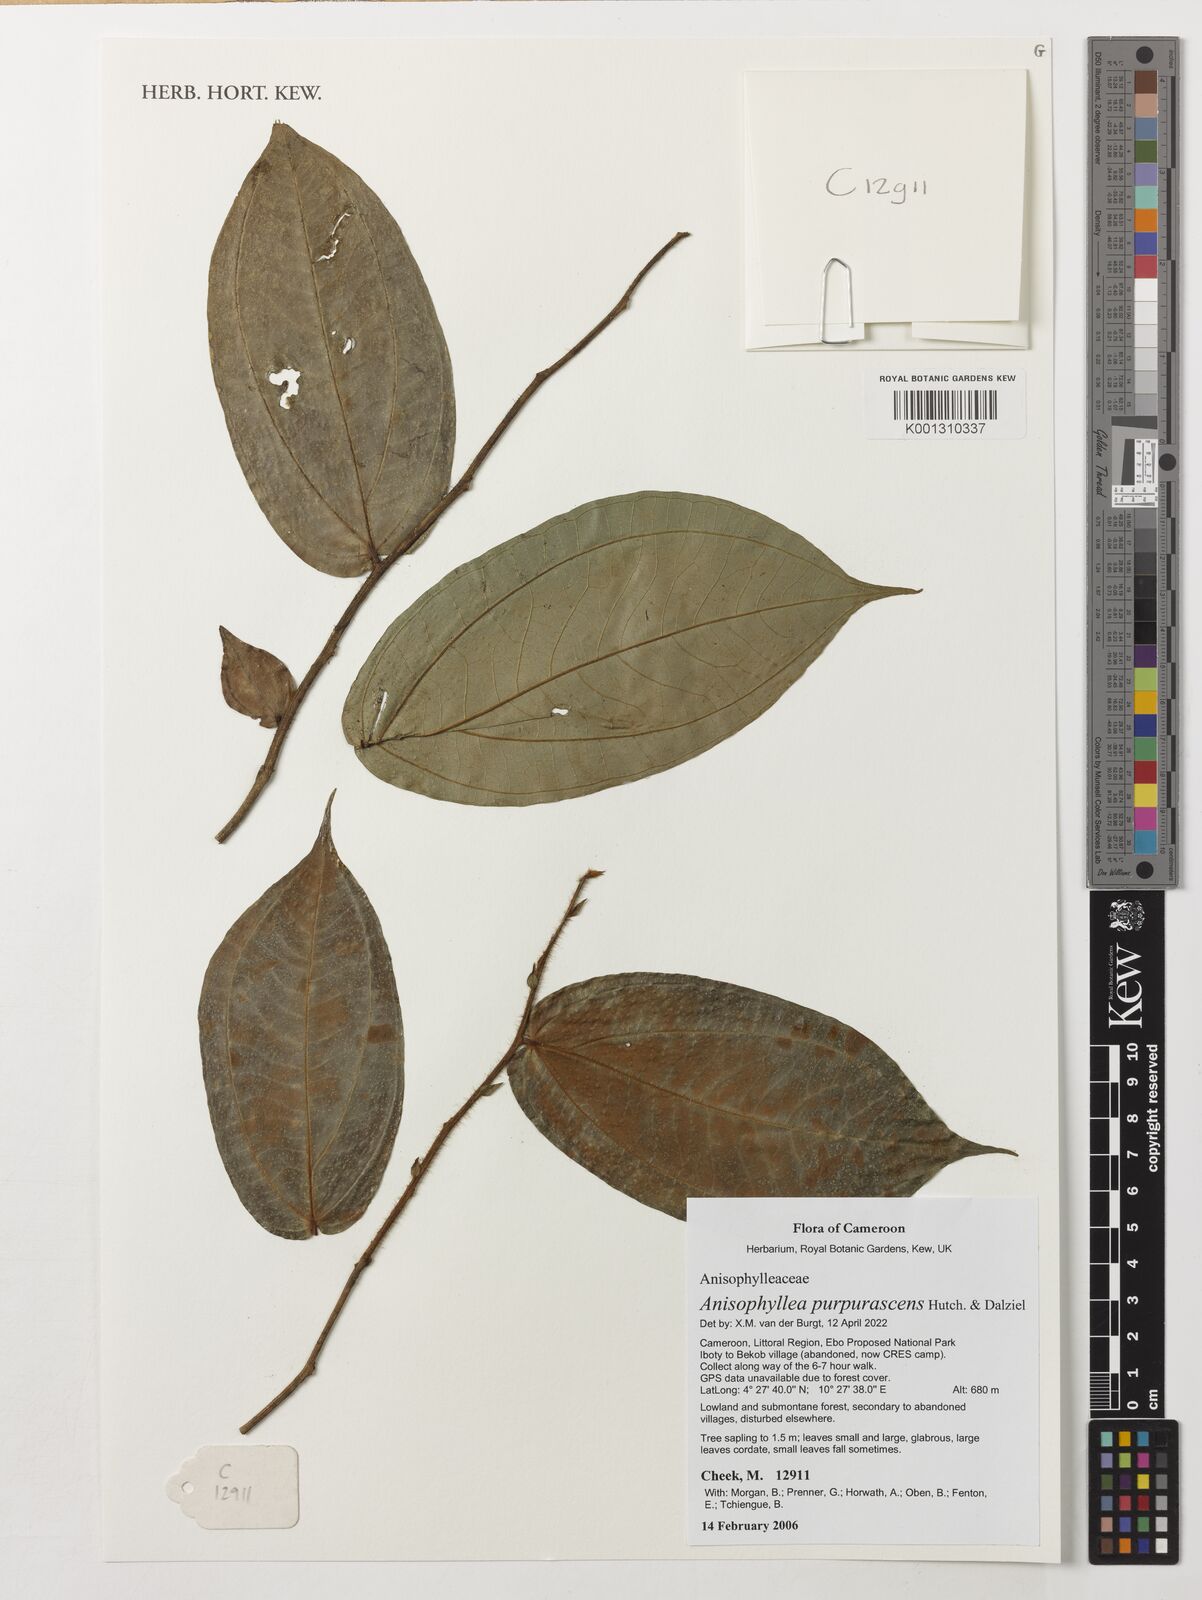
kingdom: Plantae
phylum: Tracheophyta
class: Magnoliopsida
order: Cucurbitales
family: Anisophylleaceae
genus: Anisophyllea
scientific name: Anisophyllea purpurascens
